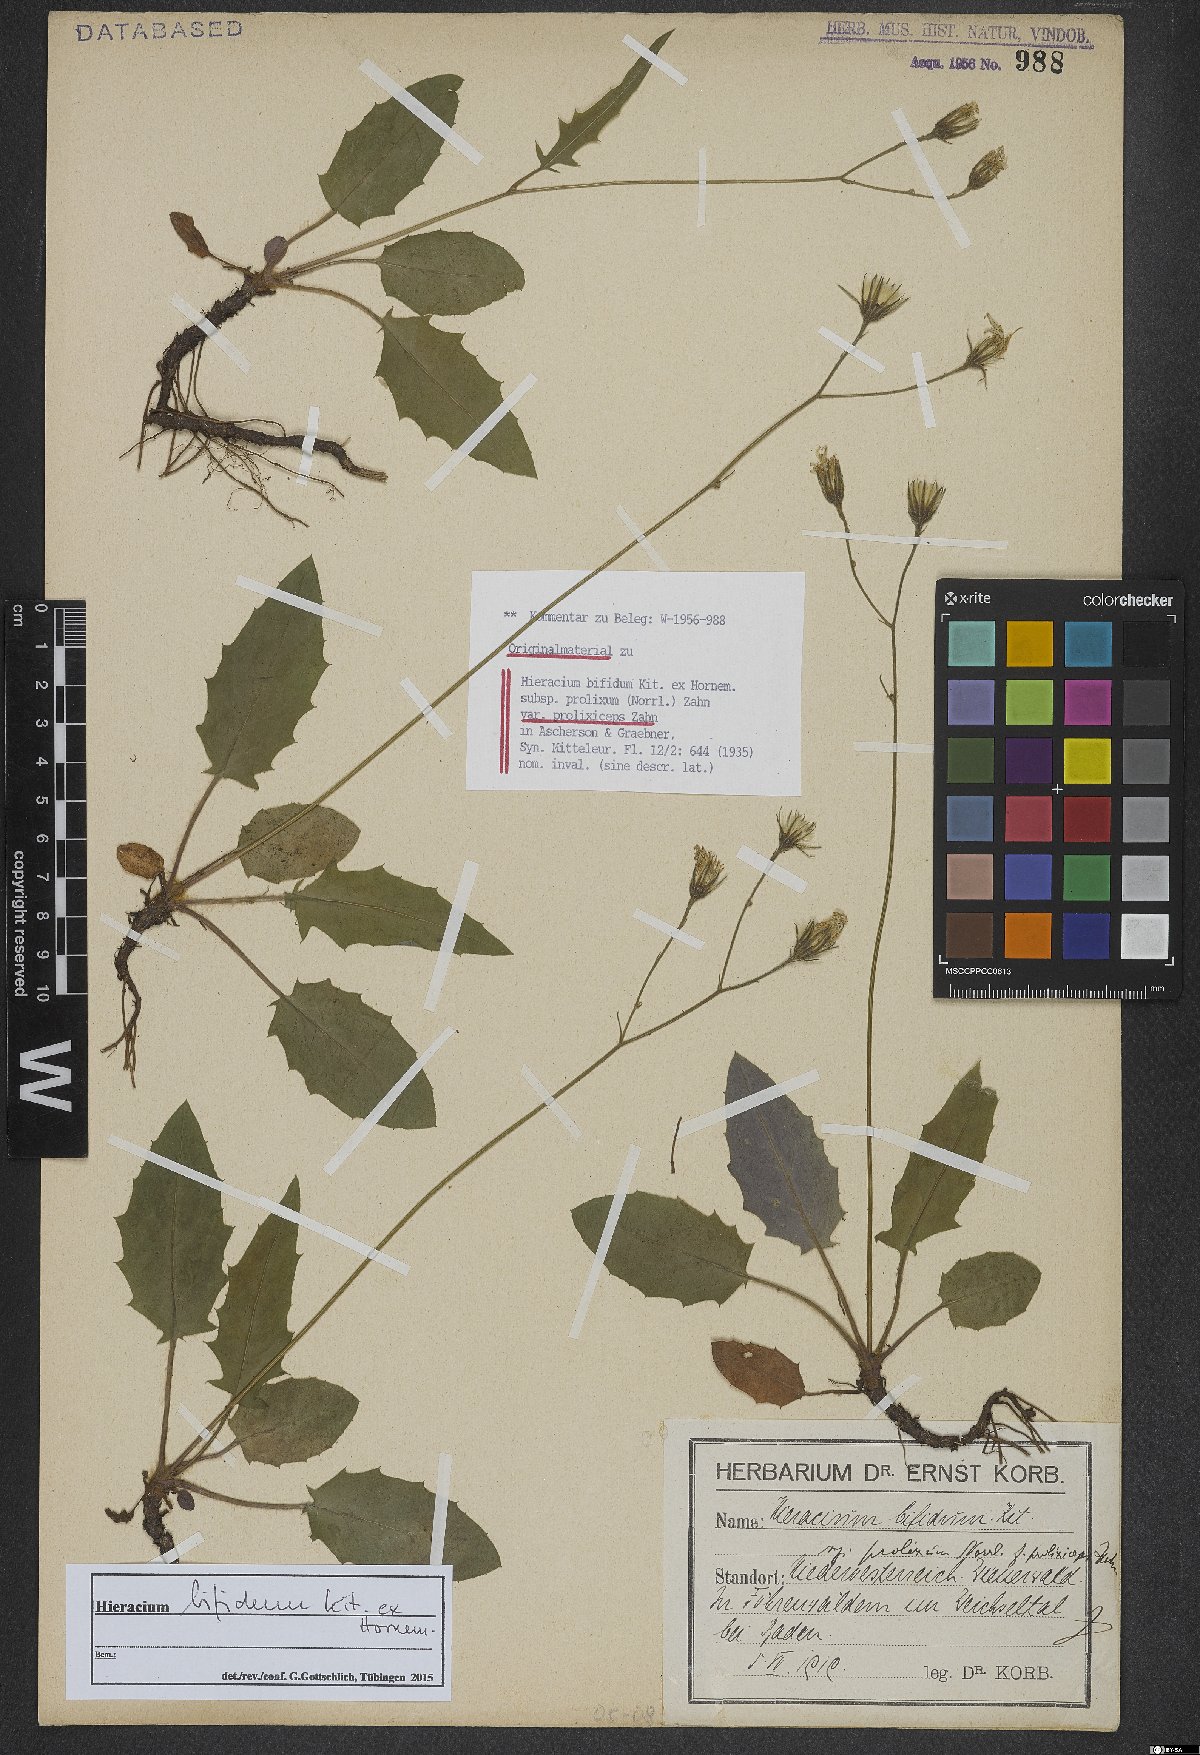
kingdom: Plantae
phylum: Tracheophyta
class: Magnoliopsida
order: Asterales
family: Asteraceae
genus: Hieracium
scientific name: Hieracium bifidum
